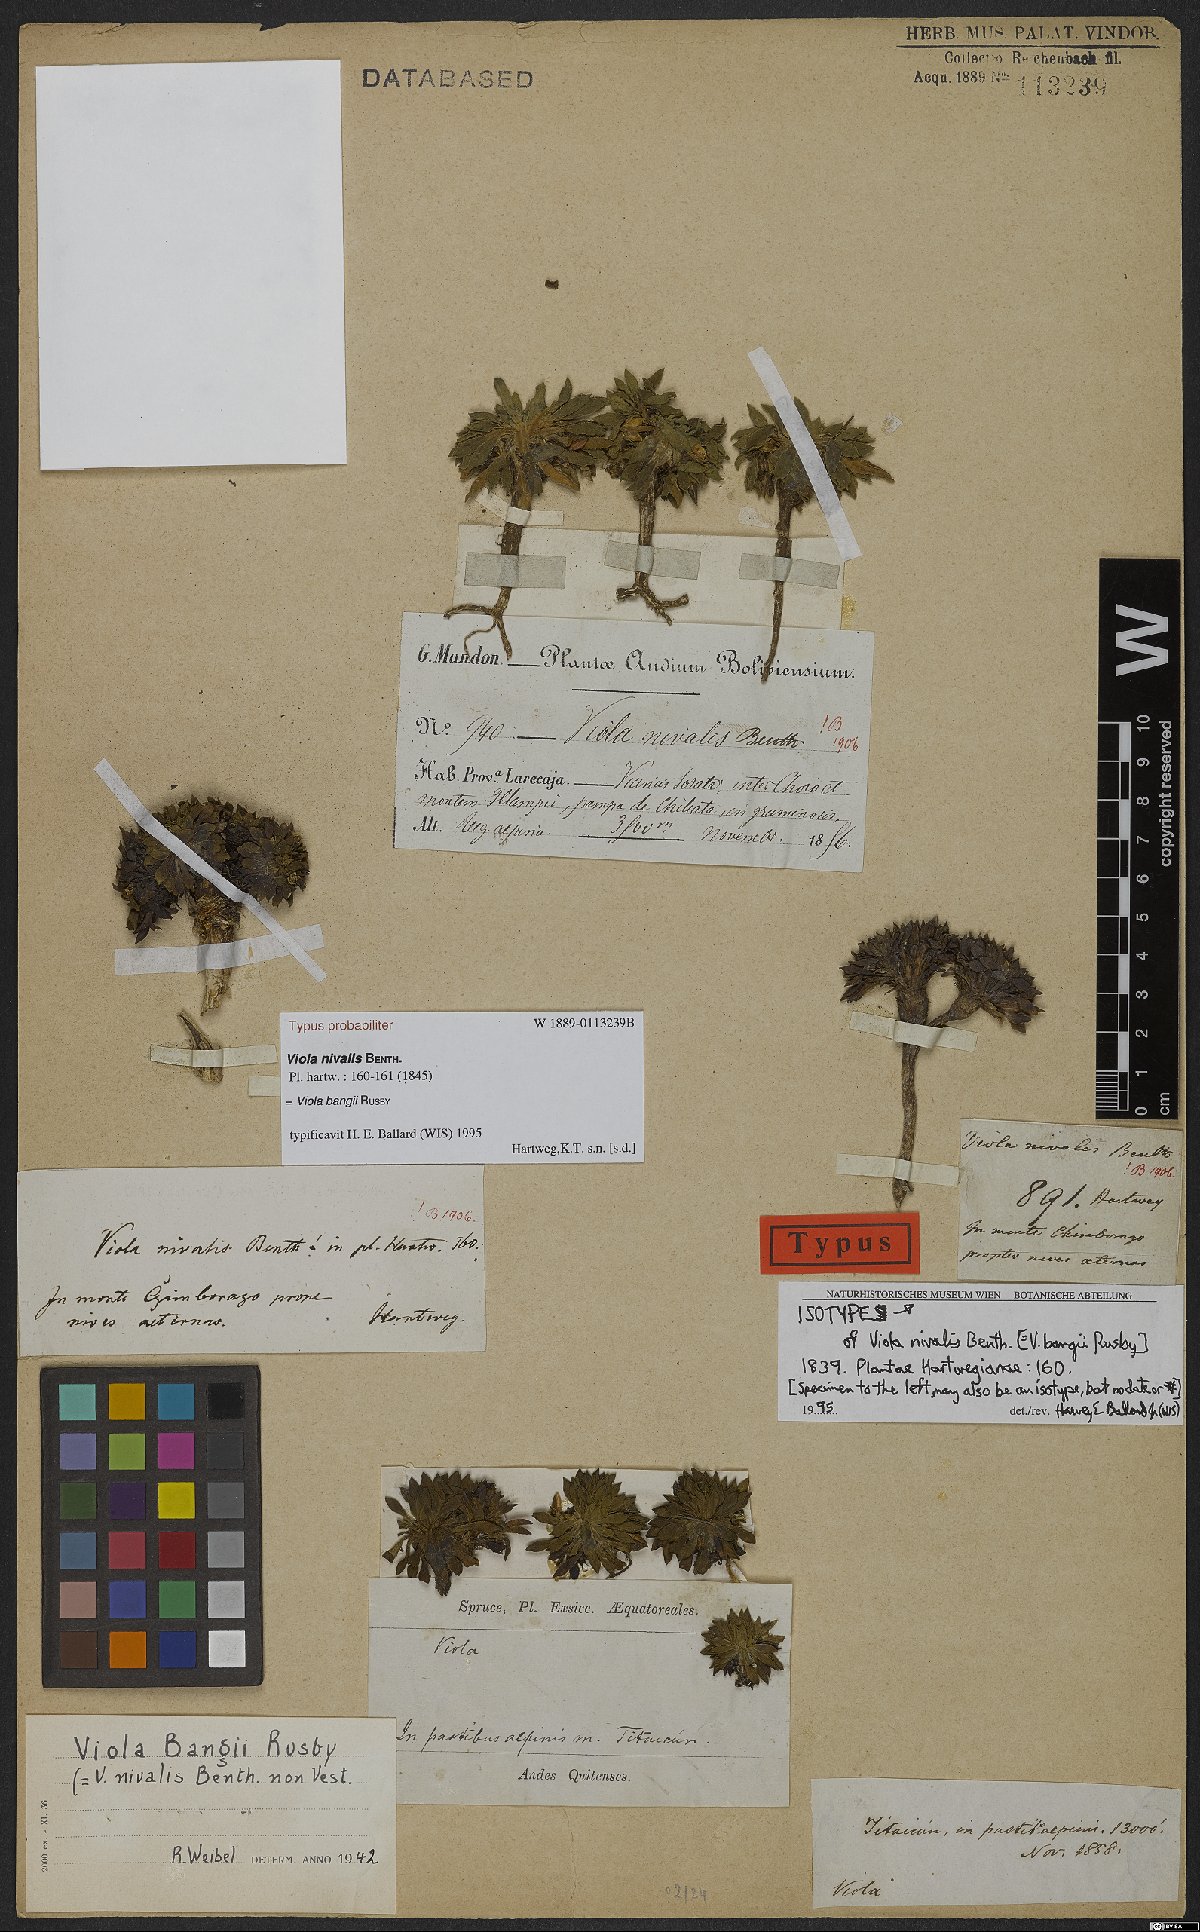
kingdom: Plantae
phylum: Tracheophyta
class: Magnoliopsida
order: Malpighiales
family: Violaceae
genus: Viola
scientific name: Viola bangii
